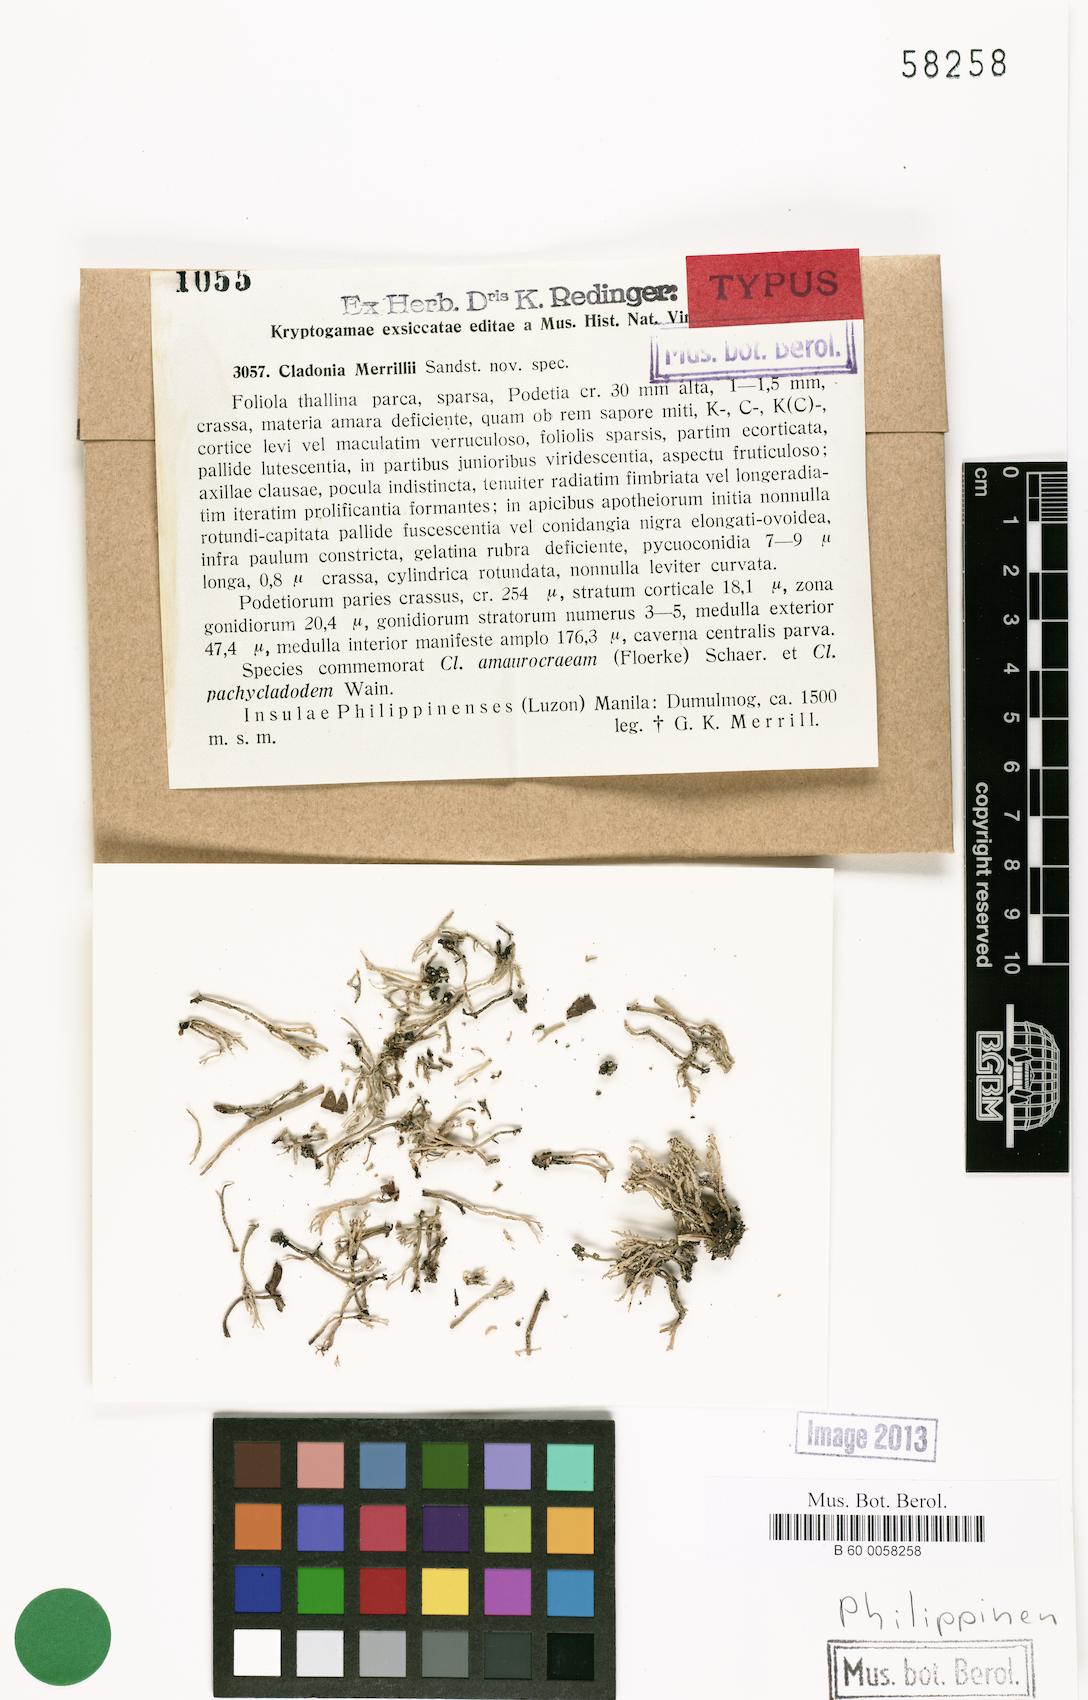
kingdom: Fungi
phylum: Ascomycota
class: Lecanoromycetes
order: Lecanorales
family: Cladoniaceae
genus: Cladonia
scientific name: Cladonia fruticulosa
